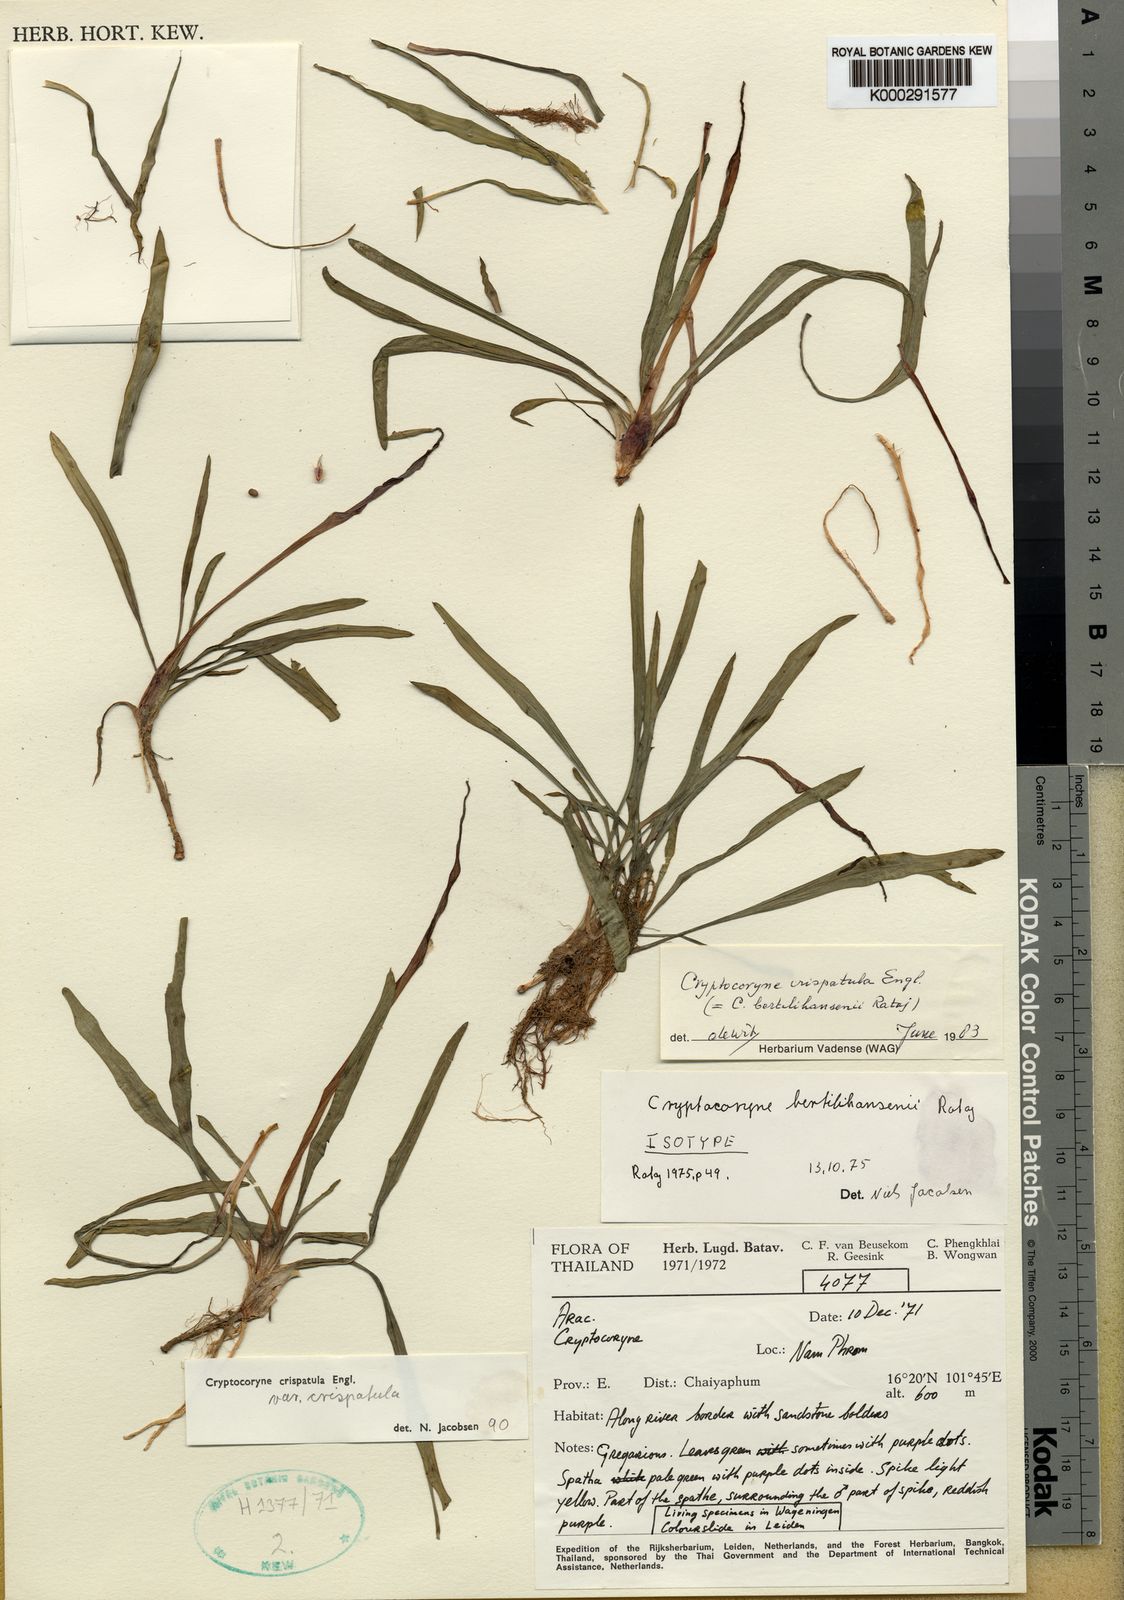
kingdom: Plantae
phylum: Tracheophyta
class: Liliopsida
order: Alismatales
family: Araceae
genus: Cryptocoryne
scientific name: Cryptocoryne crispatula
